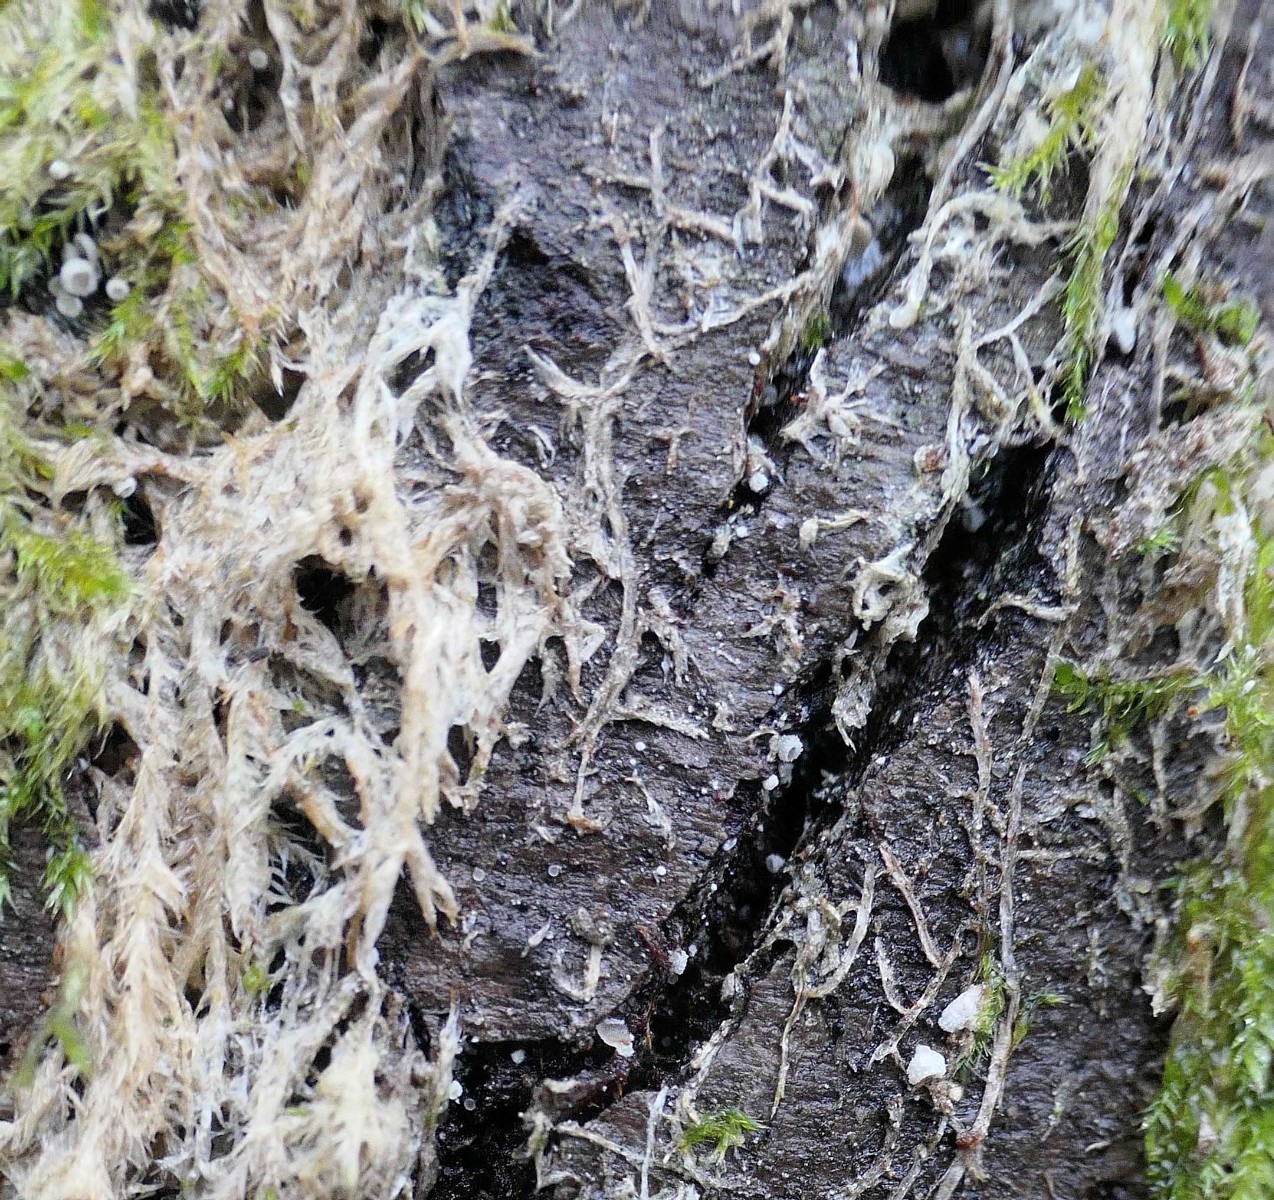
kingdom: Fungi
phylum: Basidiomycota
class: Agaricomycetes
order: Agaricales
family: Chromocyphellaceae
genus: Chromocyphella
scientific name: Chromocyphella muscicola
